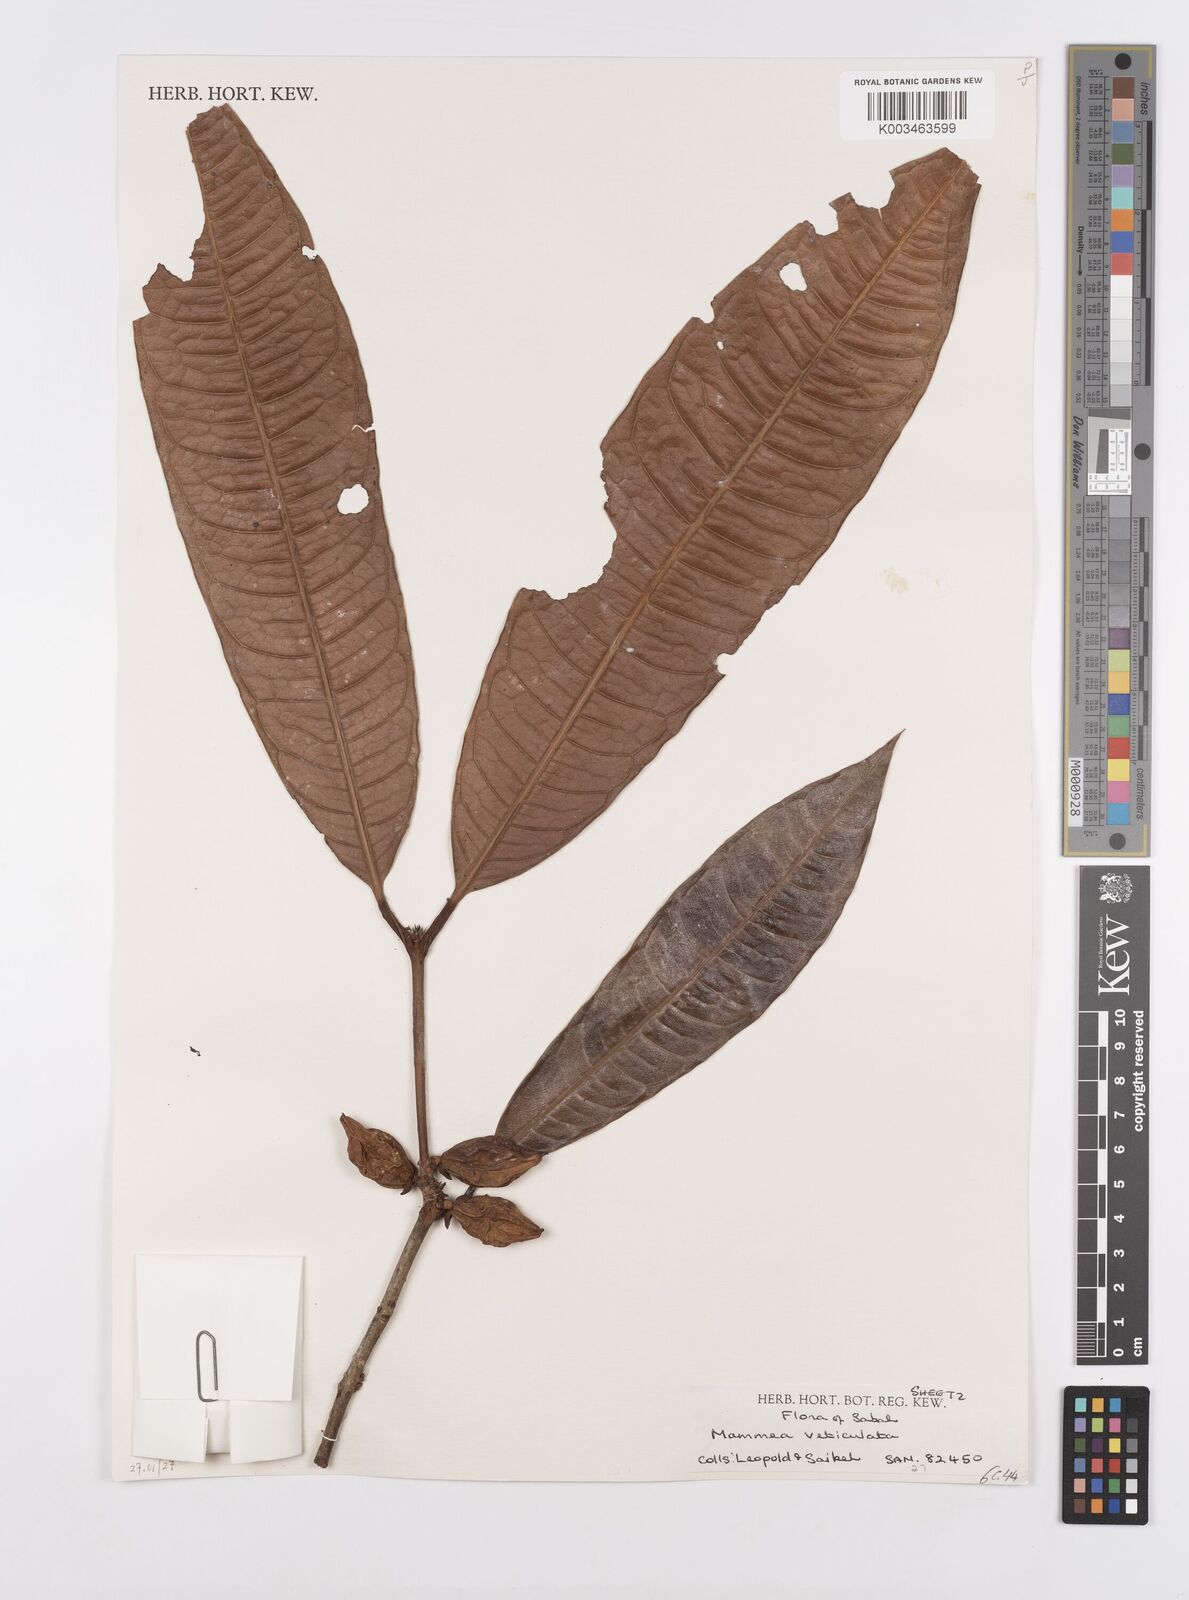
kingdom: Plantae
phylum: Tracheophyta
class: Magnoliopsida
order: Malpighiales
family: Calophyllaceae
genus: Mammea
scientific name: Mammea
